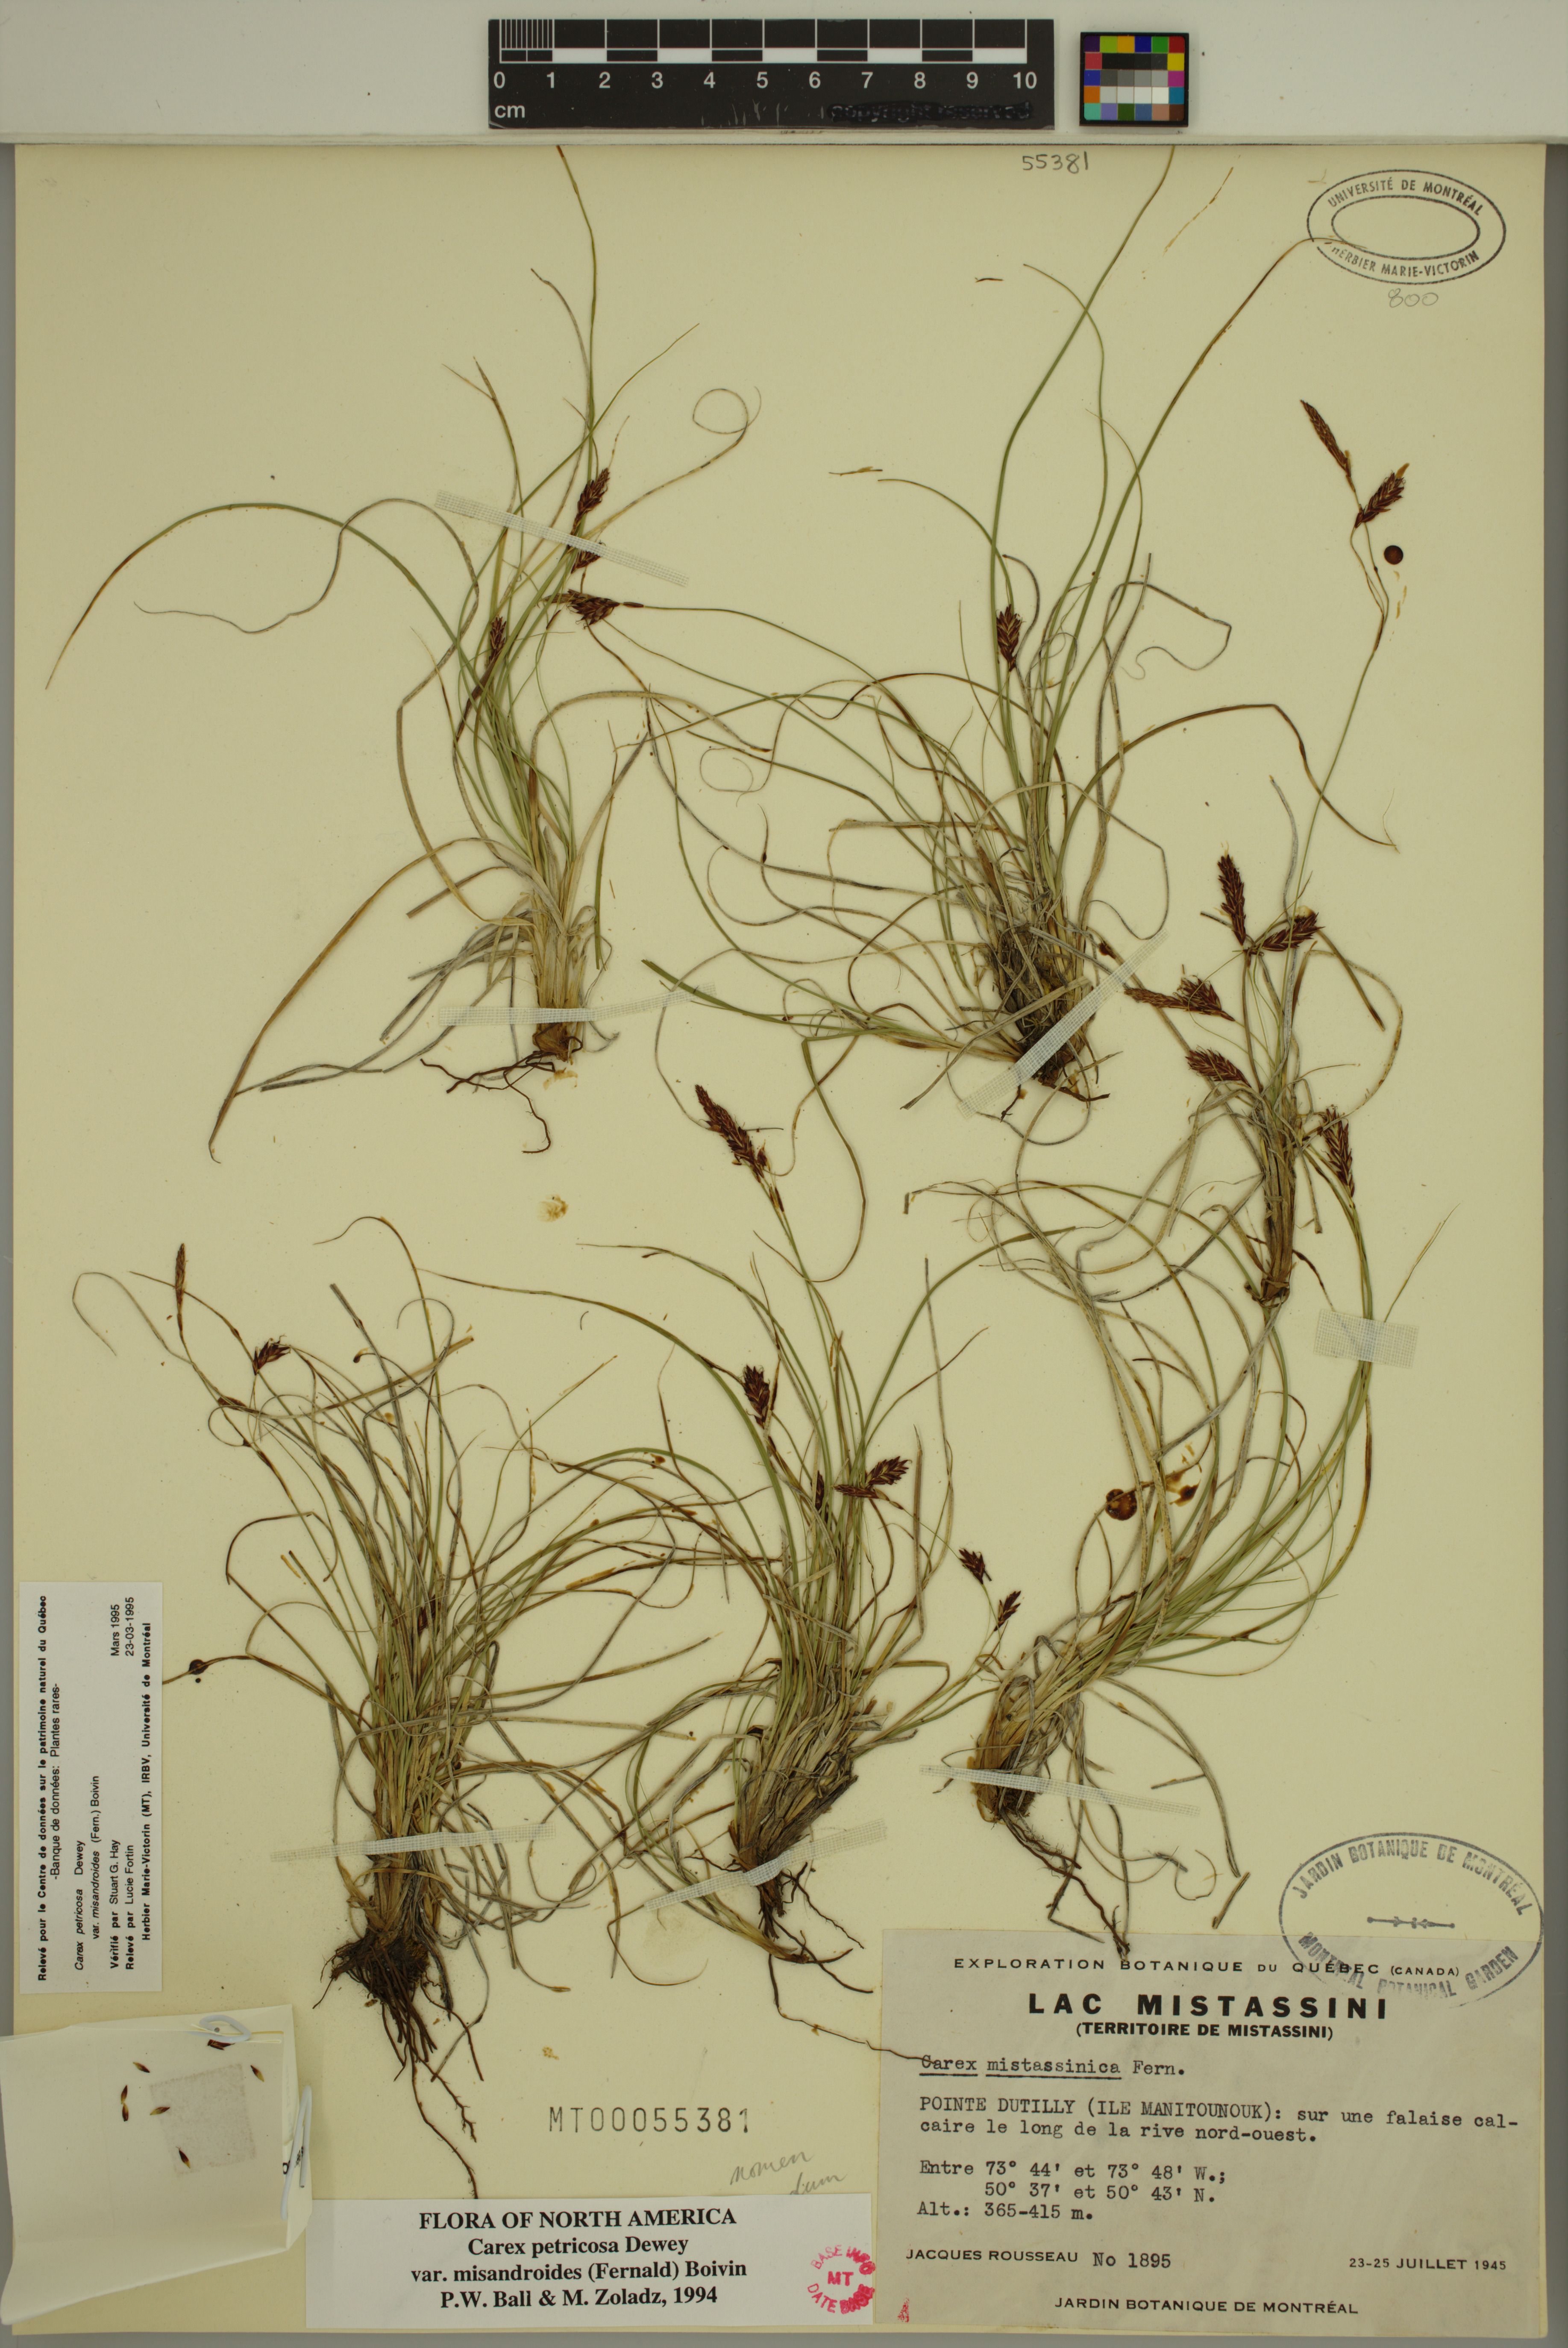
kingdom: Plantae
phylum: Tracheophyta
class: Liliopsida
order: Poales
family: Cyperaceae
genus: Carex
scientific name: Carex petricosa
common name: Rock sedge
